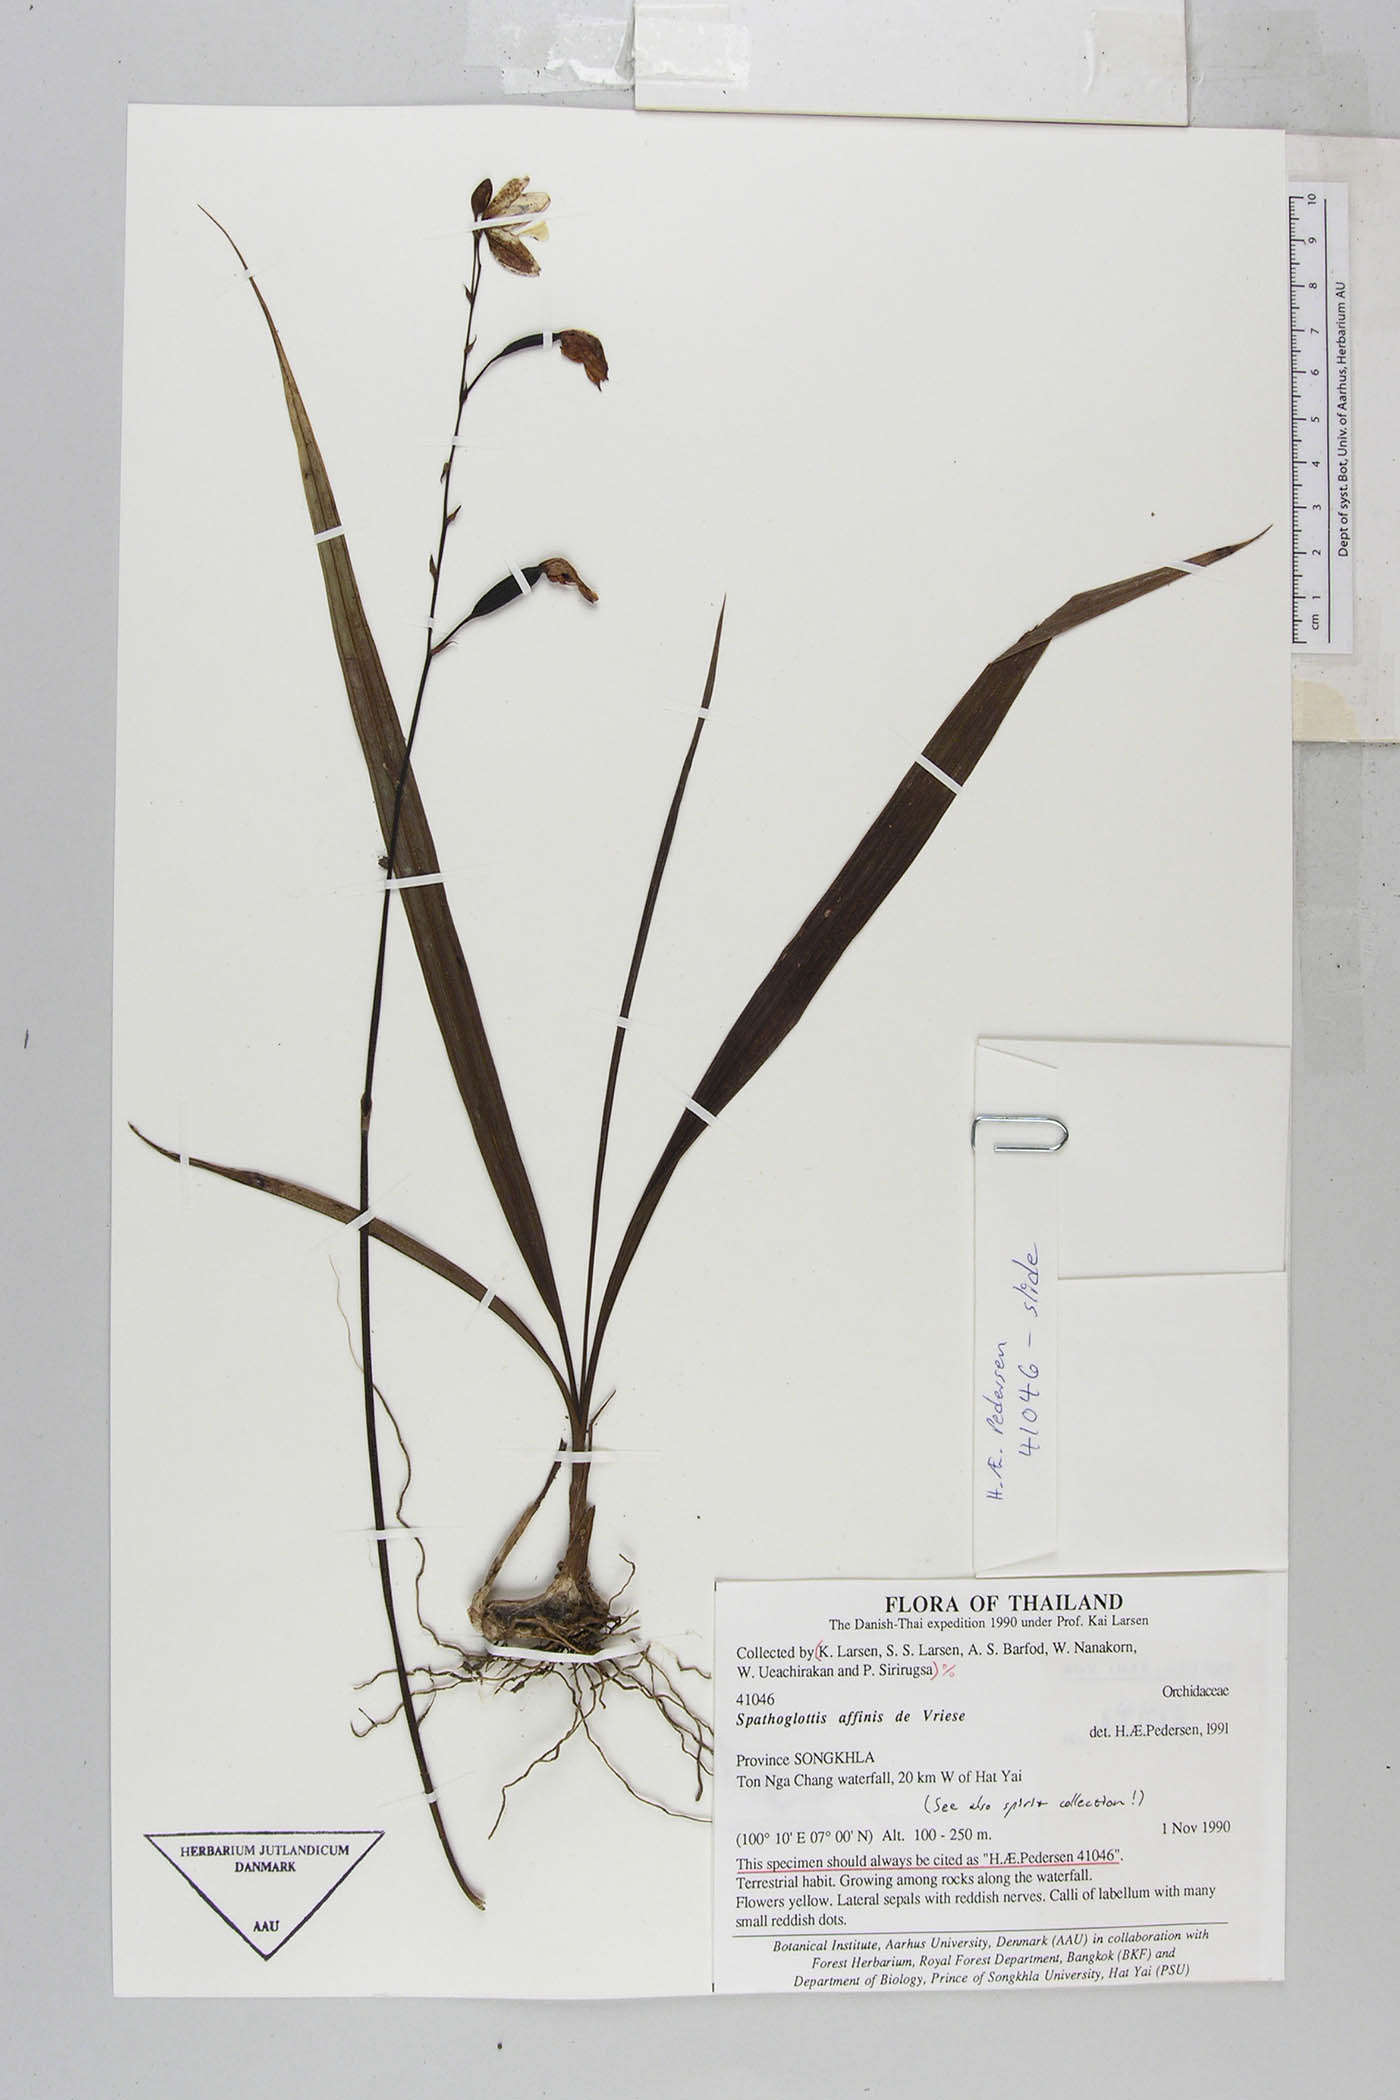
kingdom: Plantae
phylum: Tracheophyta
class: Liliopsida
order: Asparagales
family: Orchidaceae
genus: Spathoglottis
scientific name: Spathoglottis affinis
